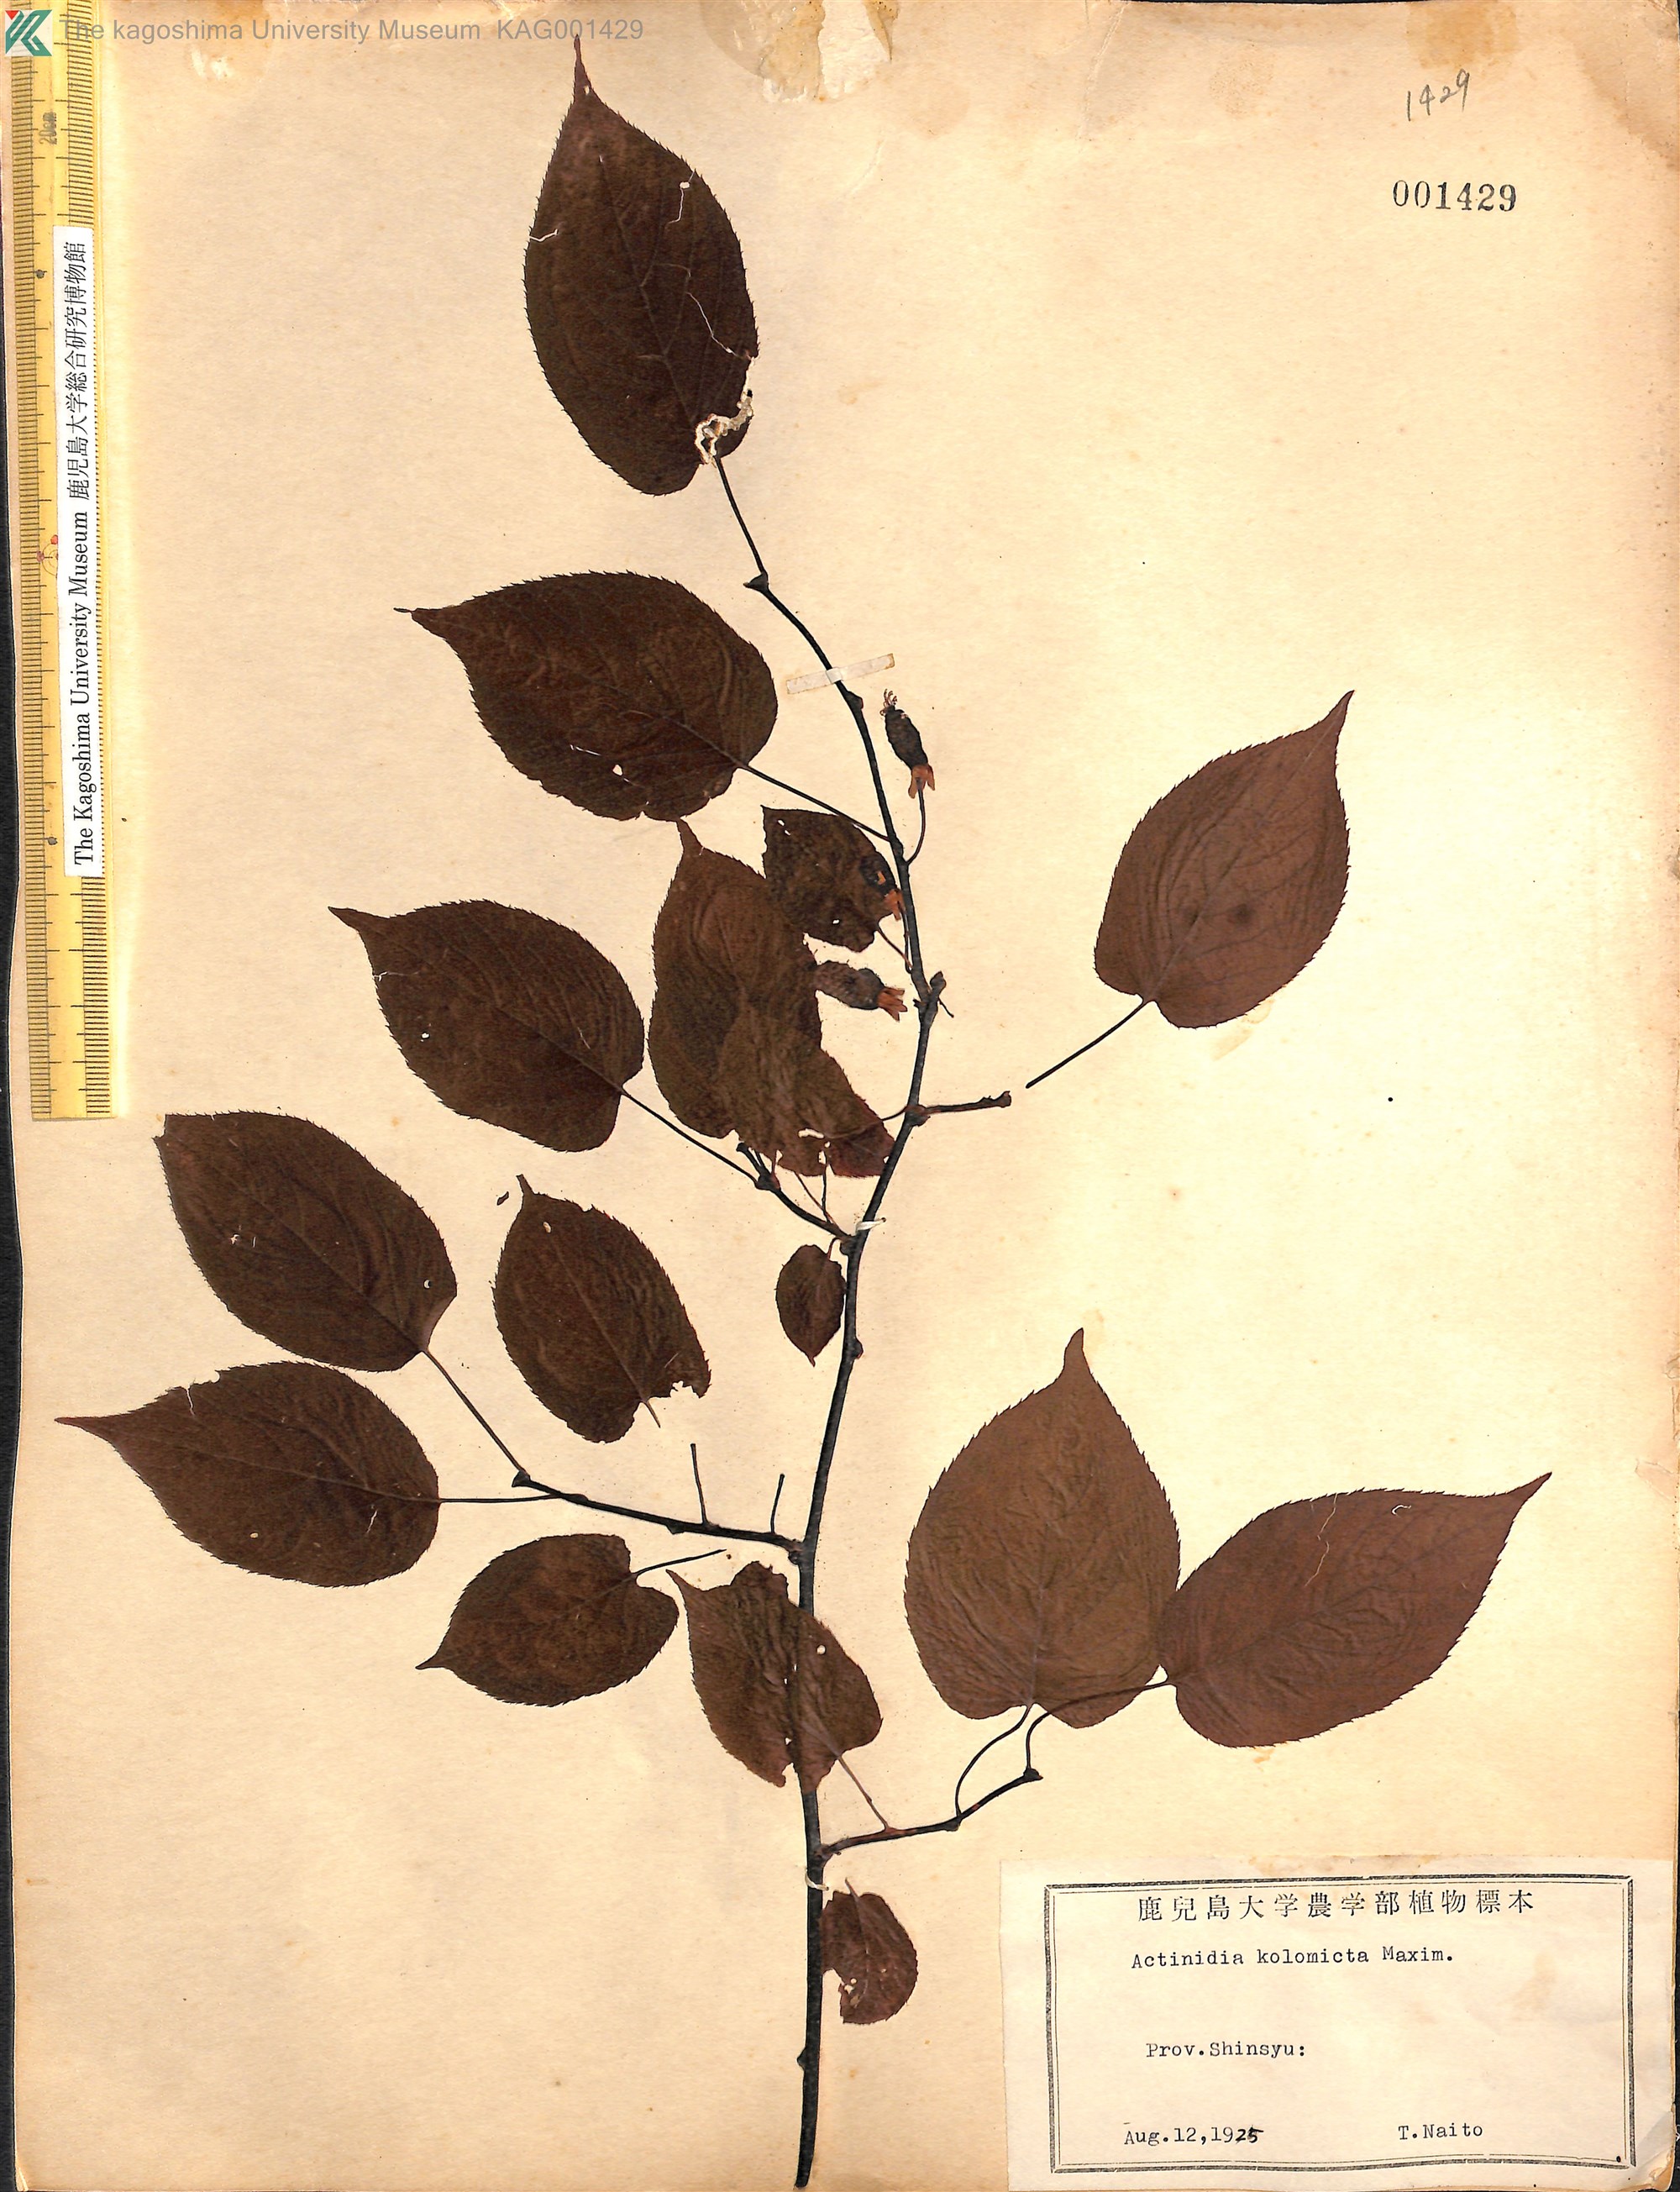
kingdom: Plantae
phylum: Tracheophyta
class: Magnoliopsida
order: Ericales
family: Actinidiaceae
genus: Actinidia
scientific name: Actinidia kolomikta
